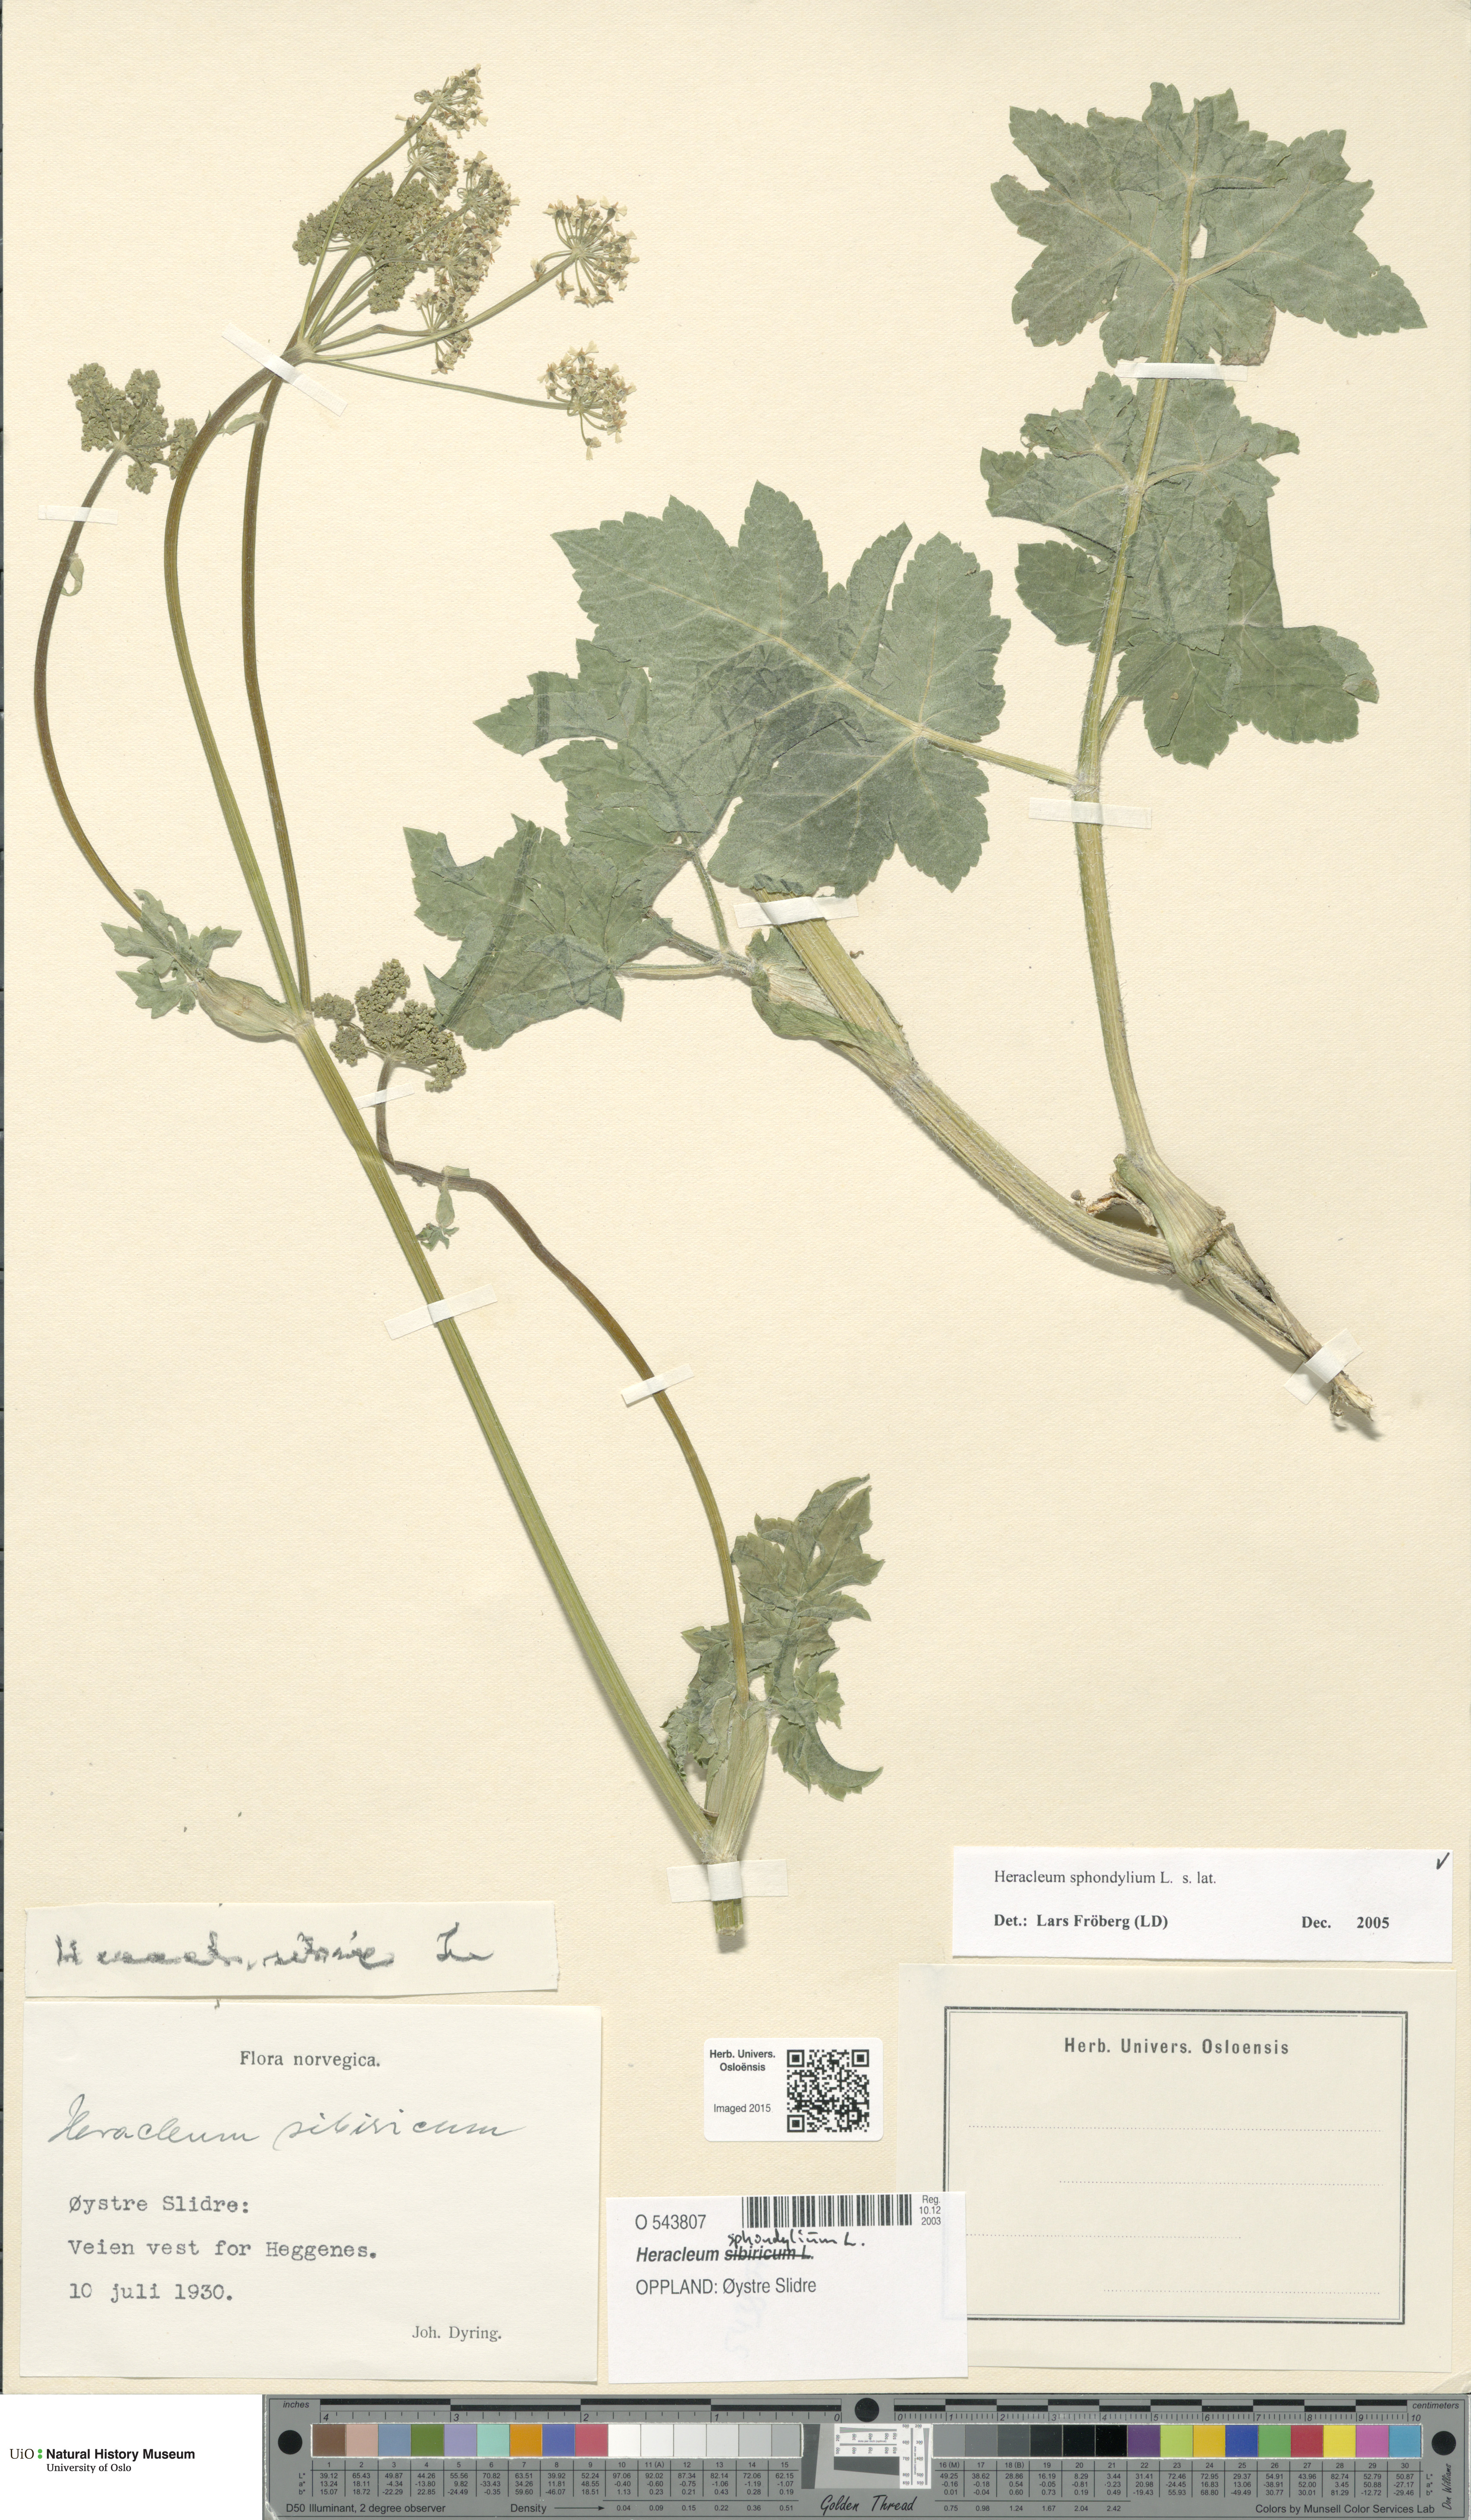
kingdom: Plantae
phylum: Tracheophyta
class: Magnoliopsida
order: Apiales
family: Apiaceae
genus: Heracleum
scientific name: Heracleum sphondylium
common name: Hogweed
